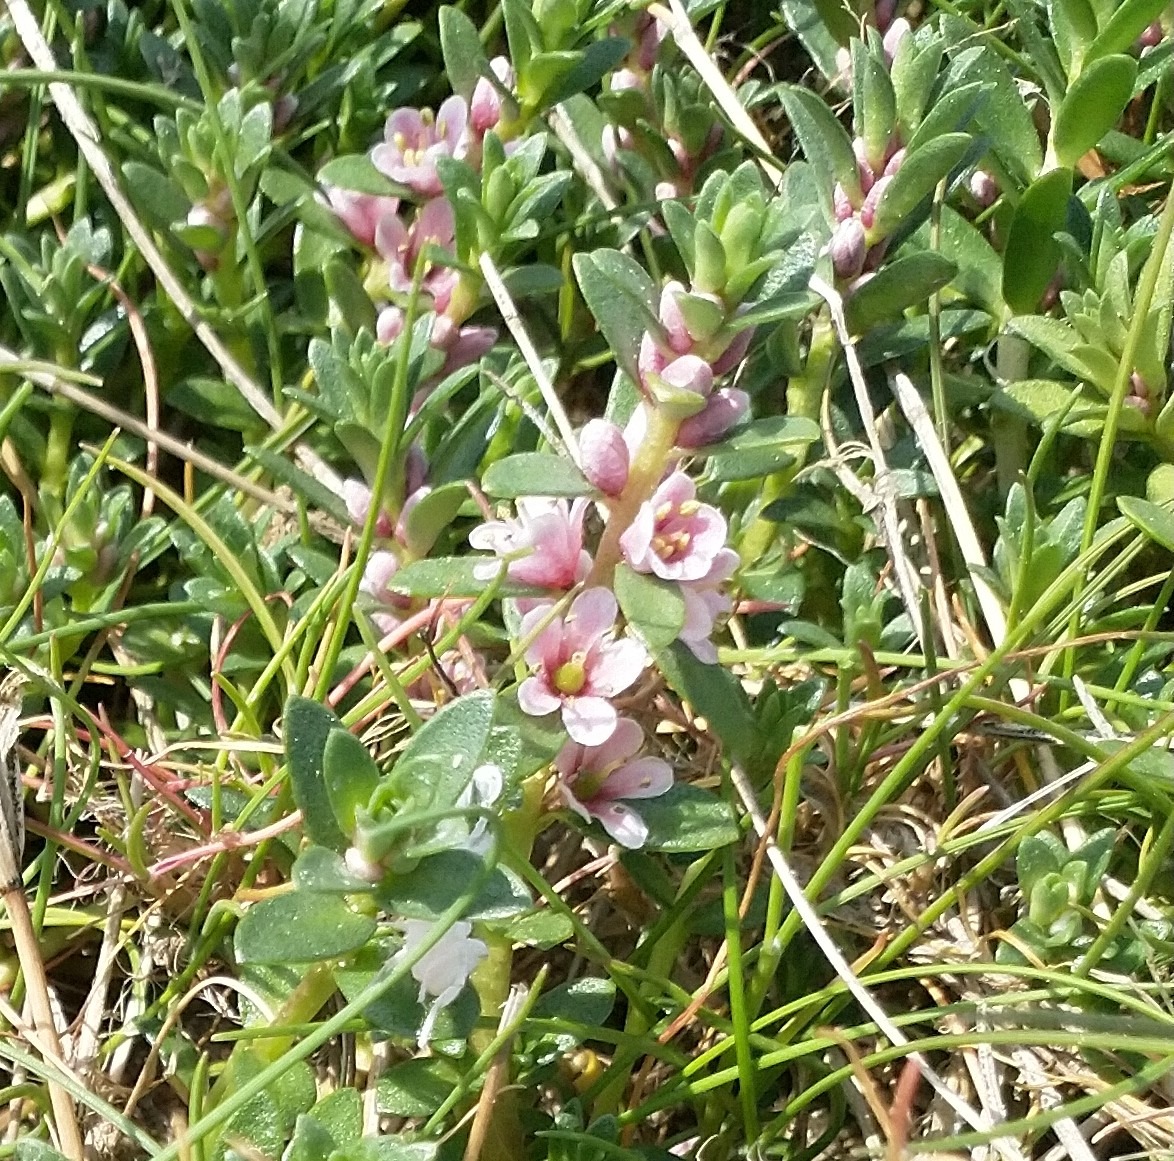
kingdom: Plantae
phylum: Tracheophyta
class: Magnoliopsida
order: Ericales
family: Primulaceae
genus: Lysimachia
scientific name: Lysimachia maritima
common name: Sandkryb
